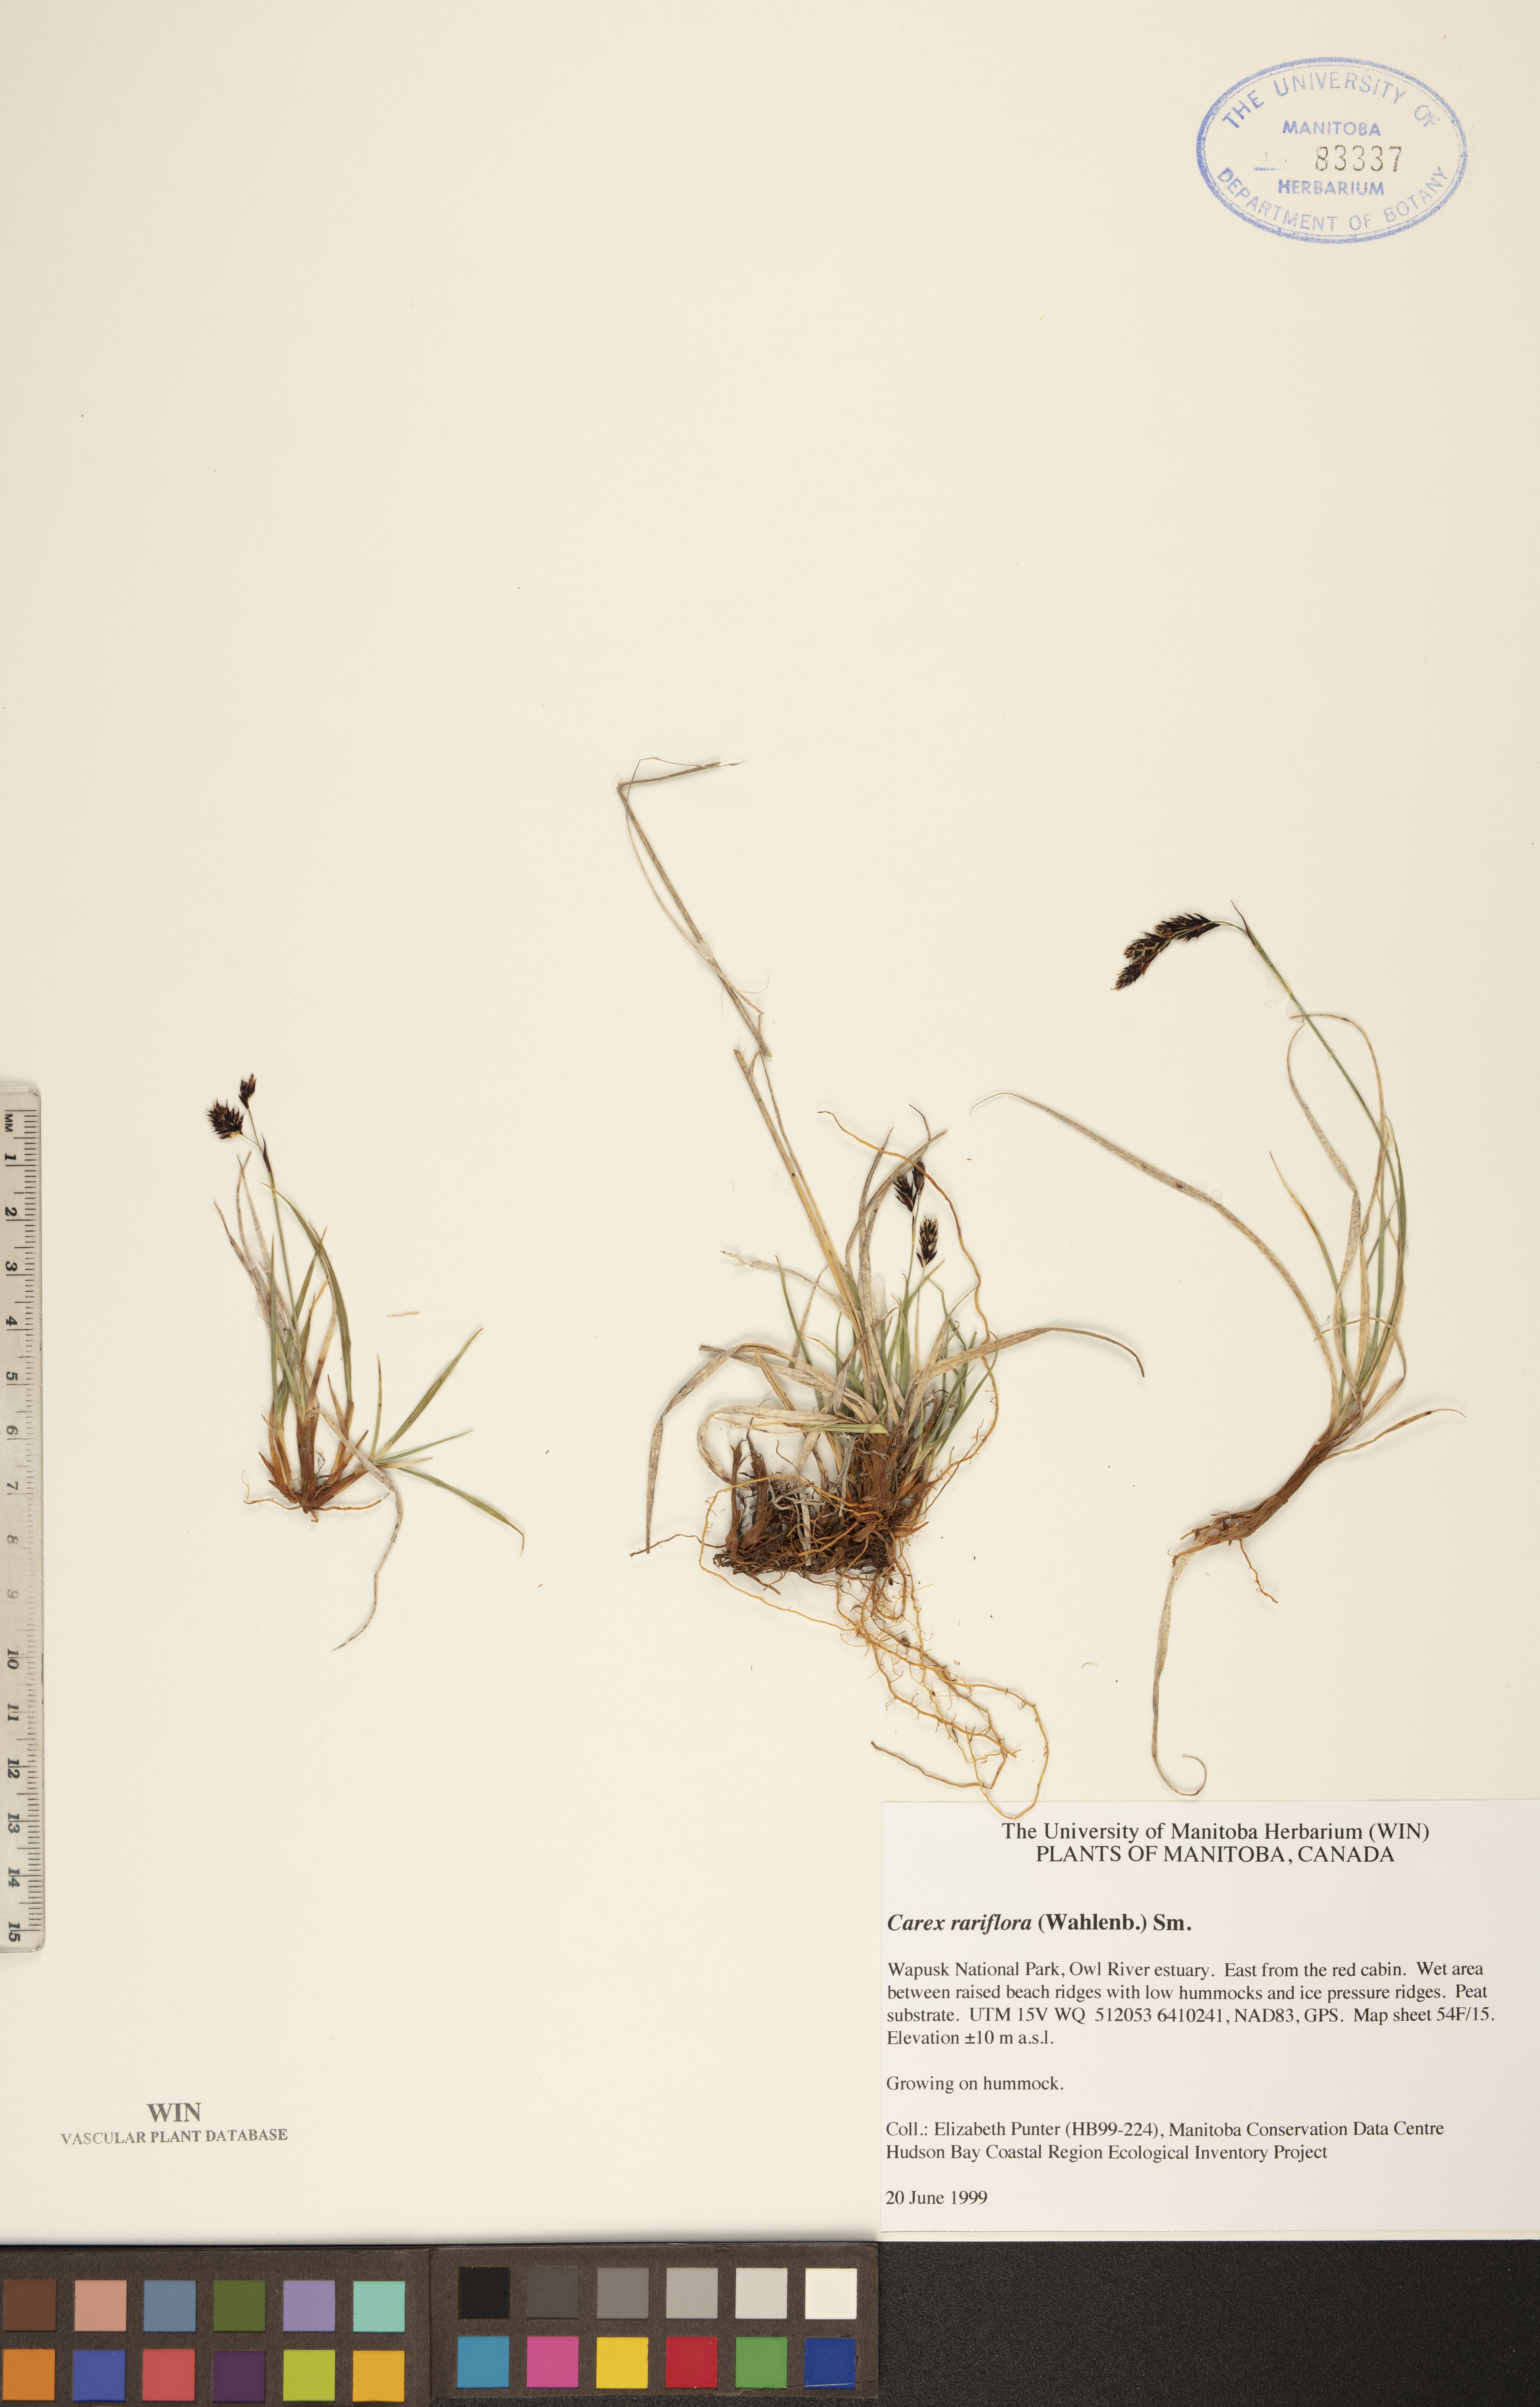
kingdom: Plantae
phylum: Tracheophyta
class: Liliopsida
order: Poales
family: Cyperaceae
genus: Carex
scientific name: Carex rariflora
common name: Loose-flowered alpine sedge
